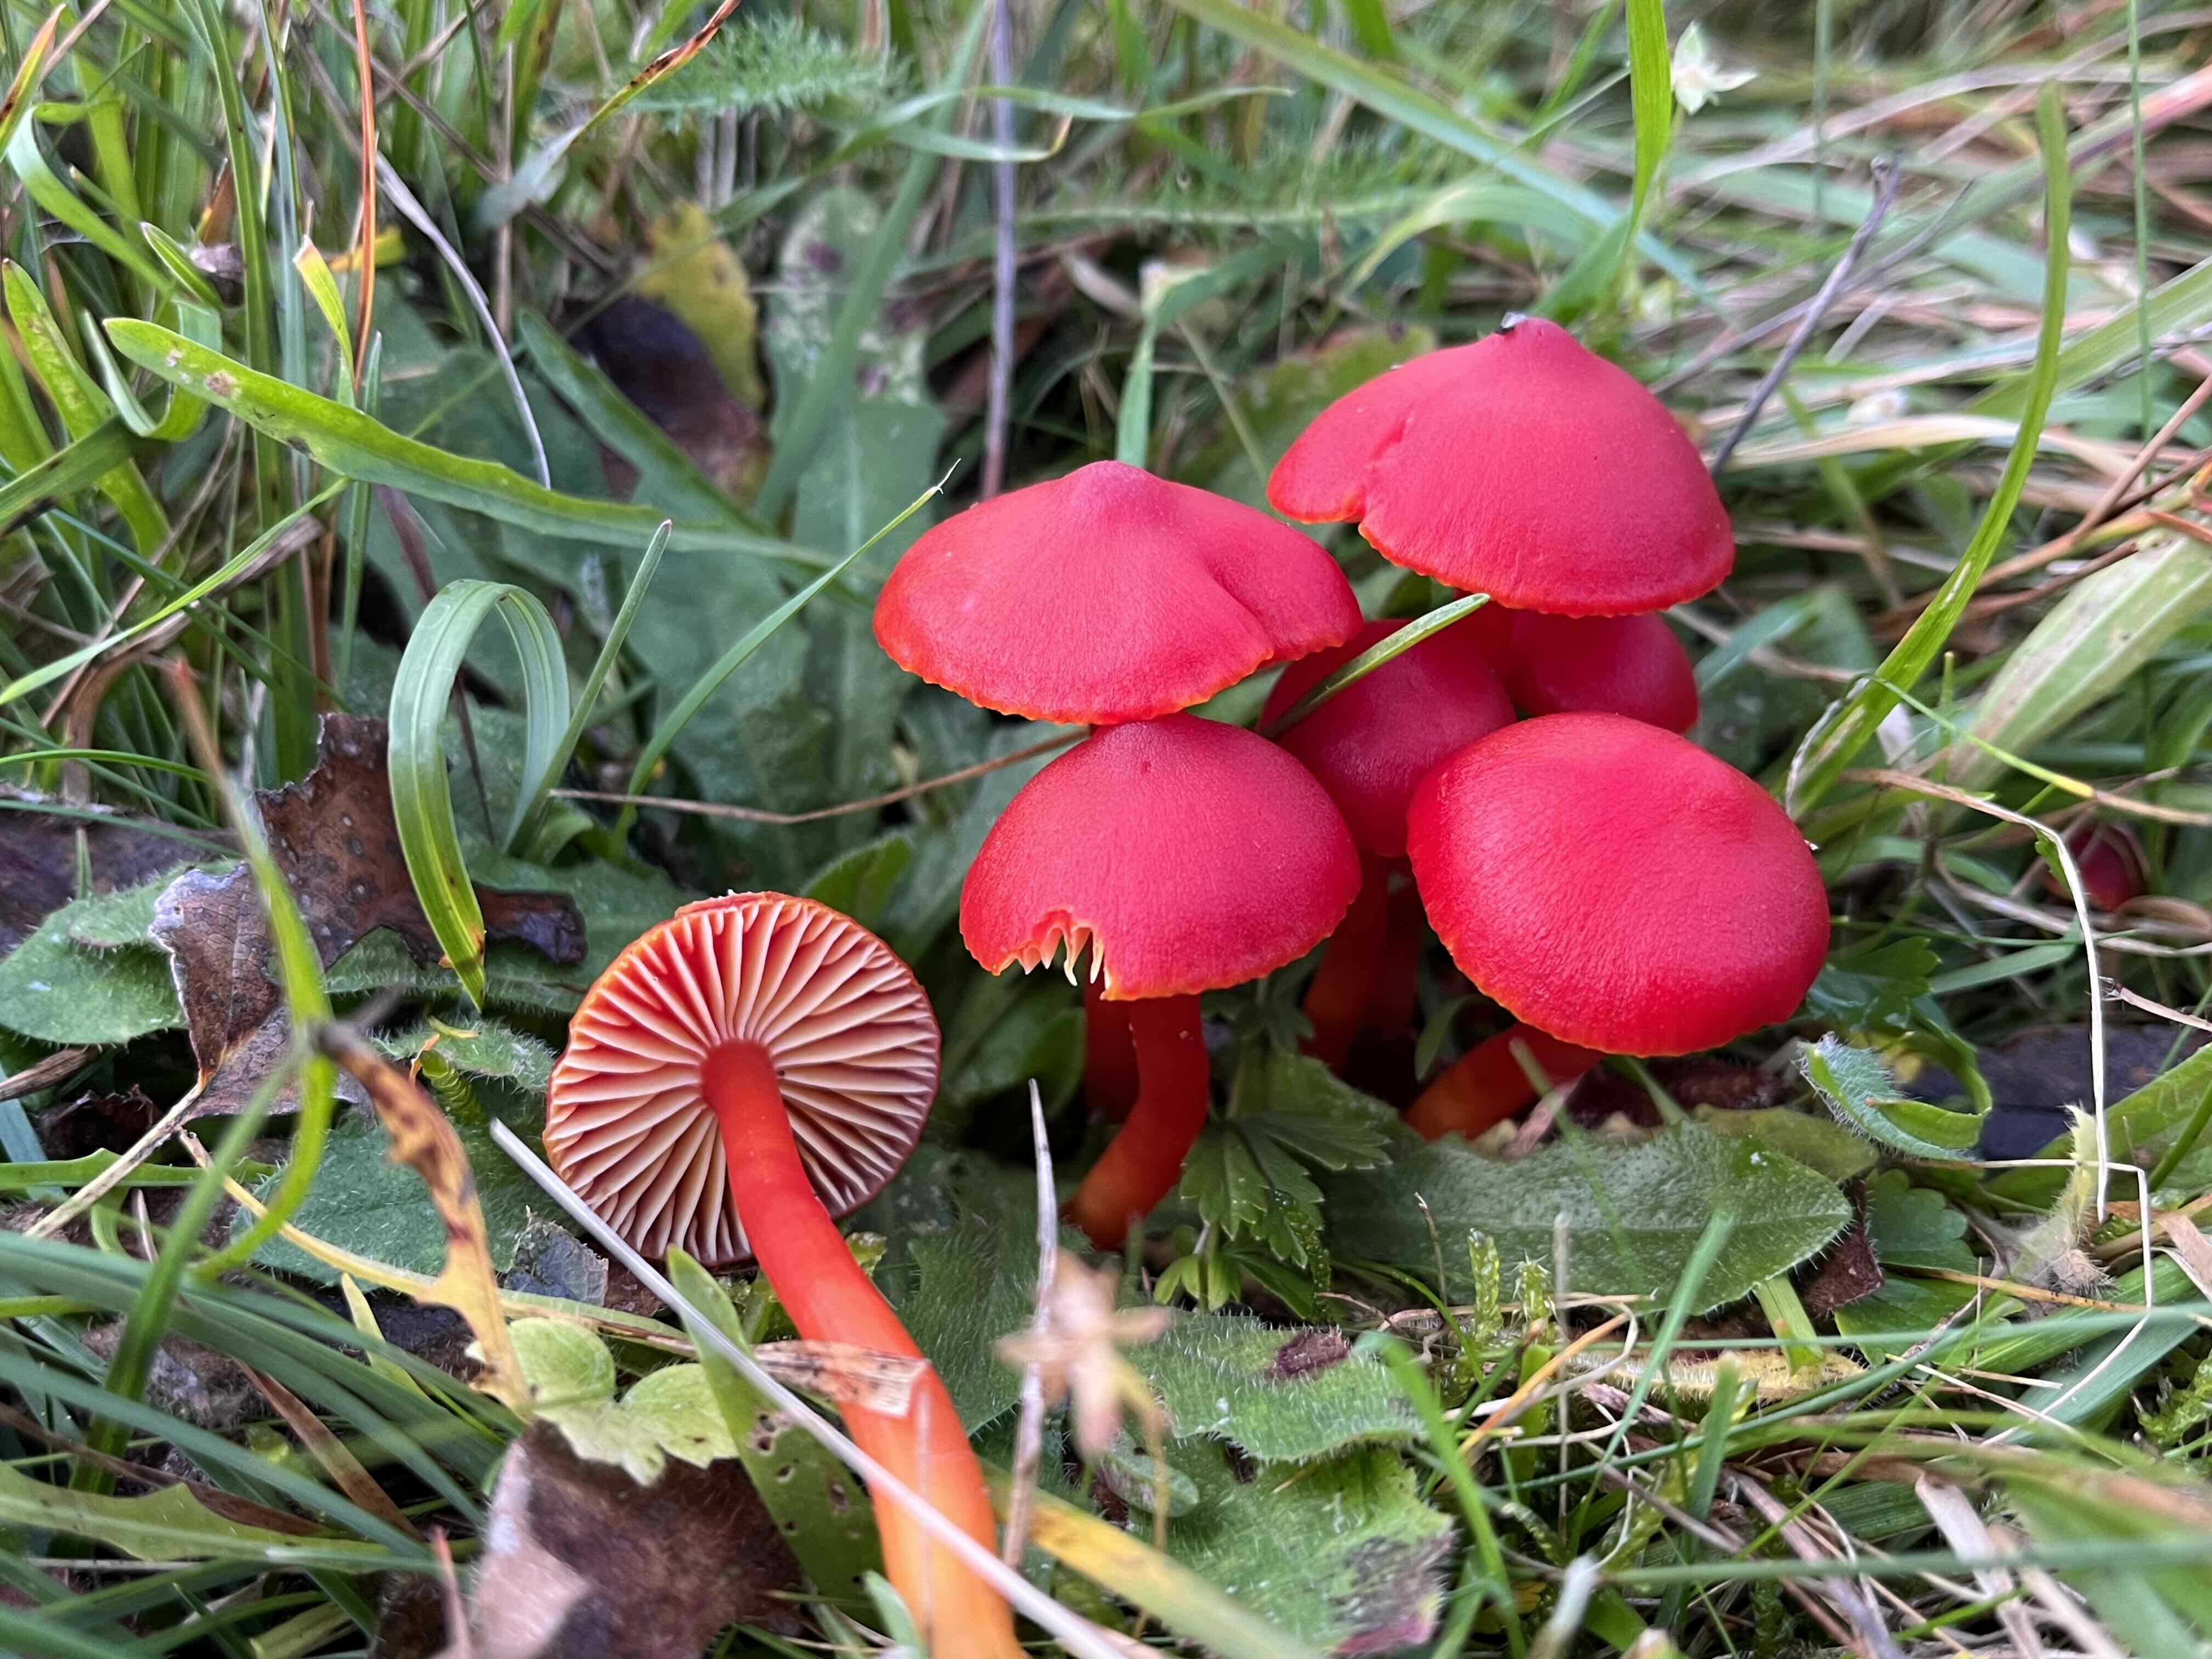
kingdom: Fungi
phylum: Basidiomycota
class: Agaricomycetes
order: Agaricales
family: Hygrophoraceae
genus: Hygrocybe
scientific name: Hygrocybe coccinea
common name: cinnober-vokshat
